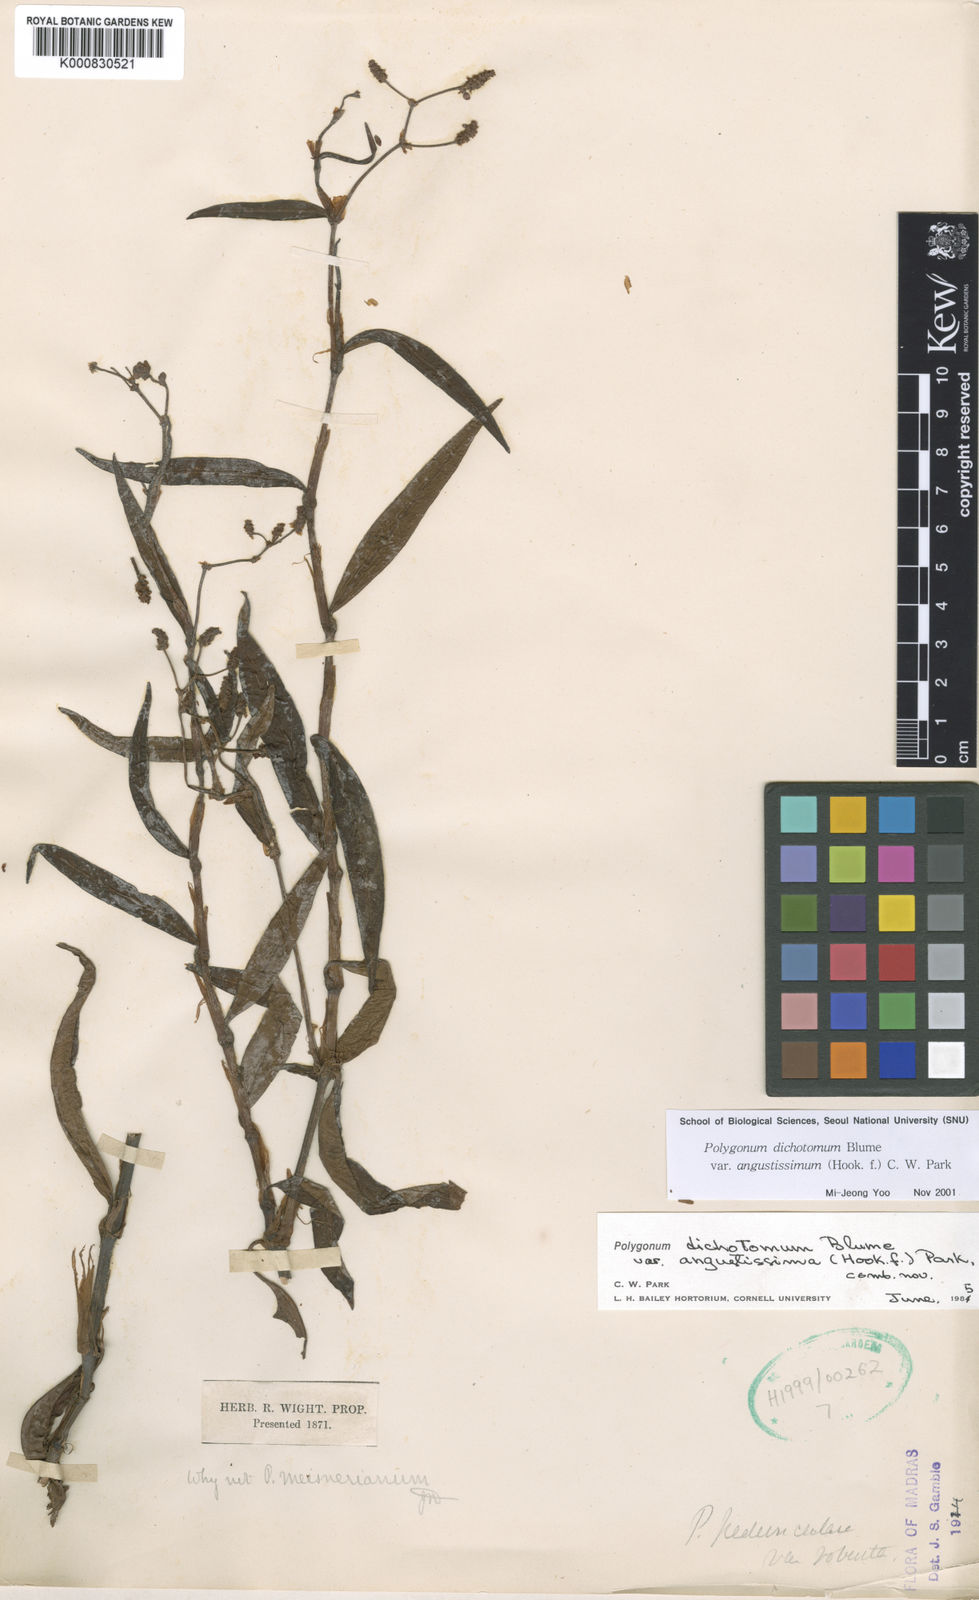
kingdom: Plantae
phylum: Tracheophyta
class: Magnoliopsida
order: Caryophyllales
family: Polygonaceae
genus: Persicaria
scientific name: Persicaria dichotoma
